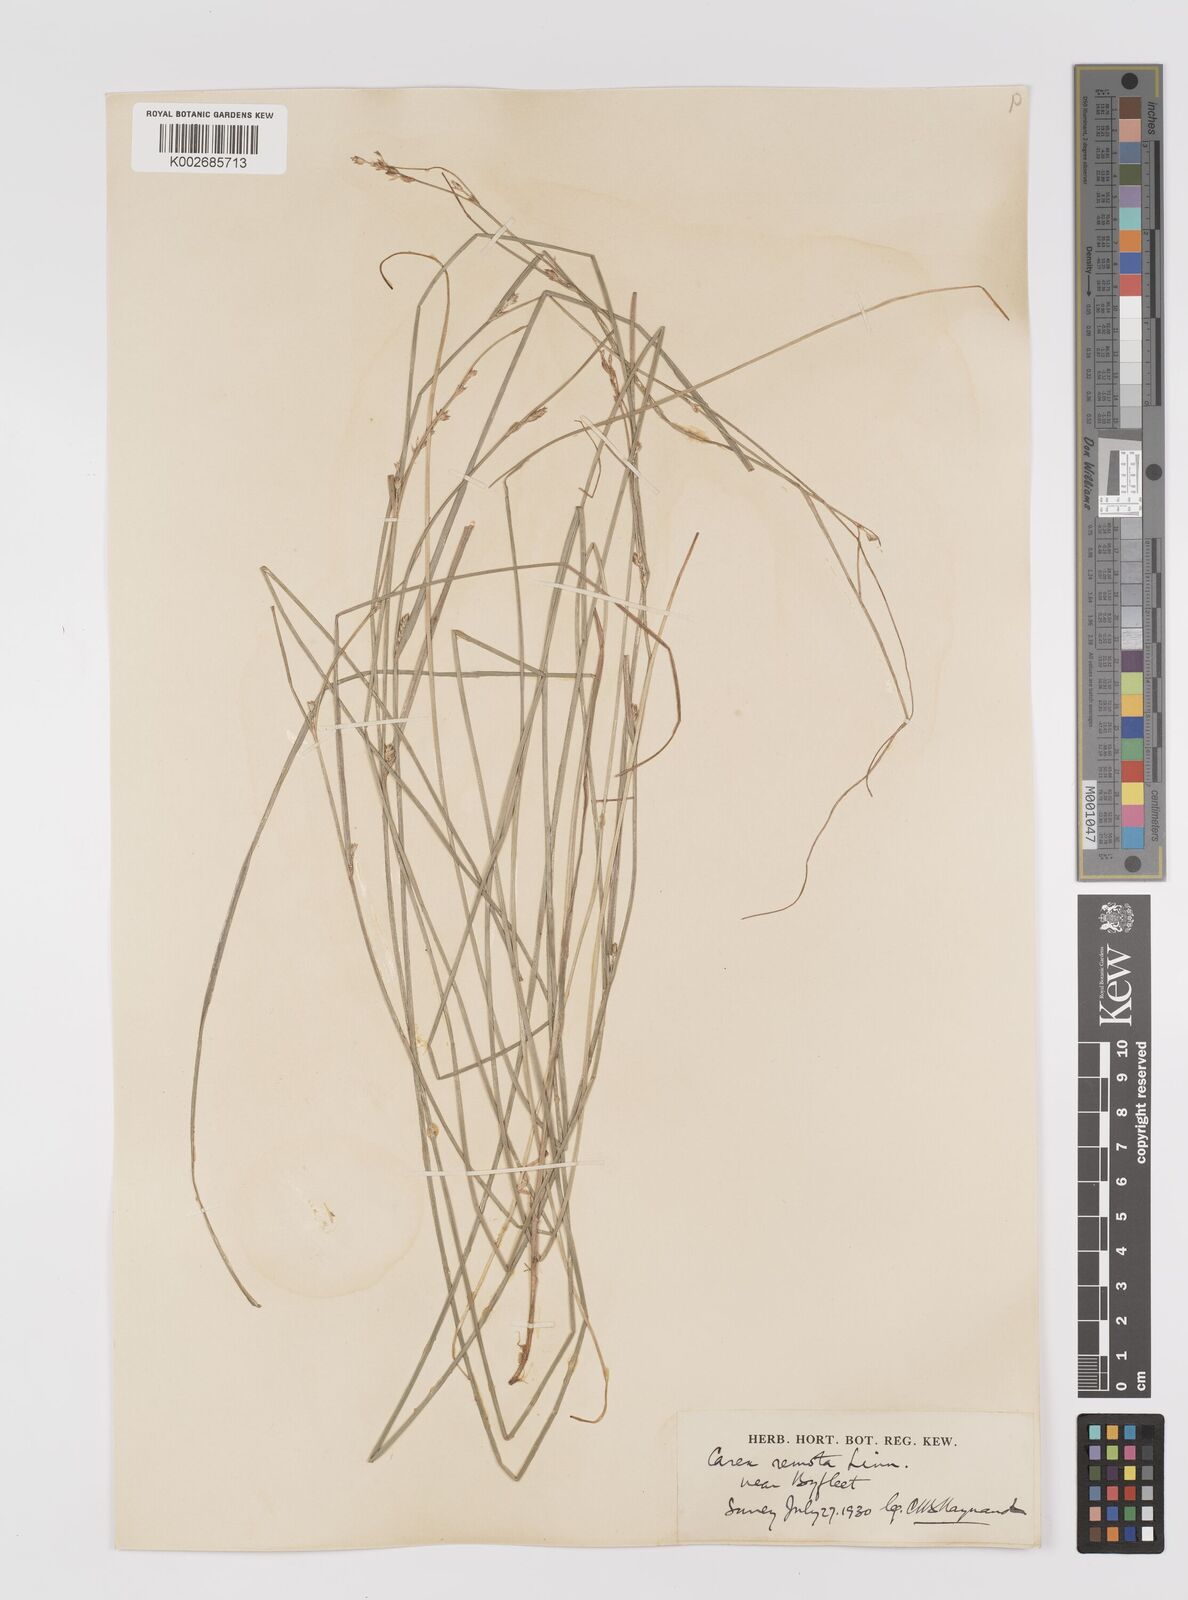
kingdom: Plantae
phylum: Tracheophyta
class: Liliopsida
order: Poales
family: Cyperaceae
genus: Carex
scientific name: Carex remota
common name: Remote sedge
